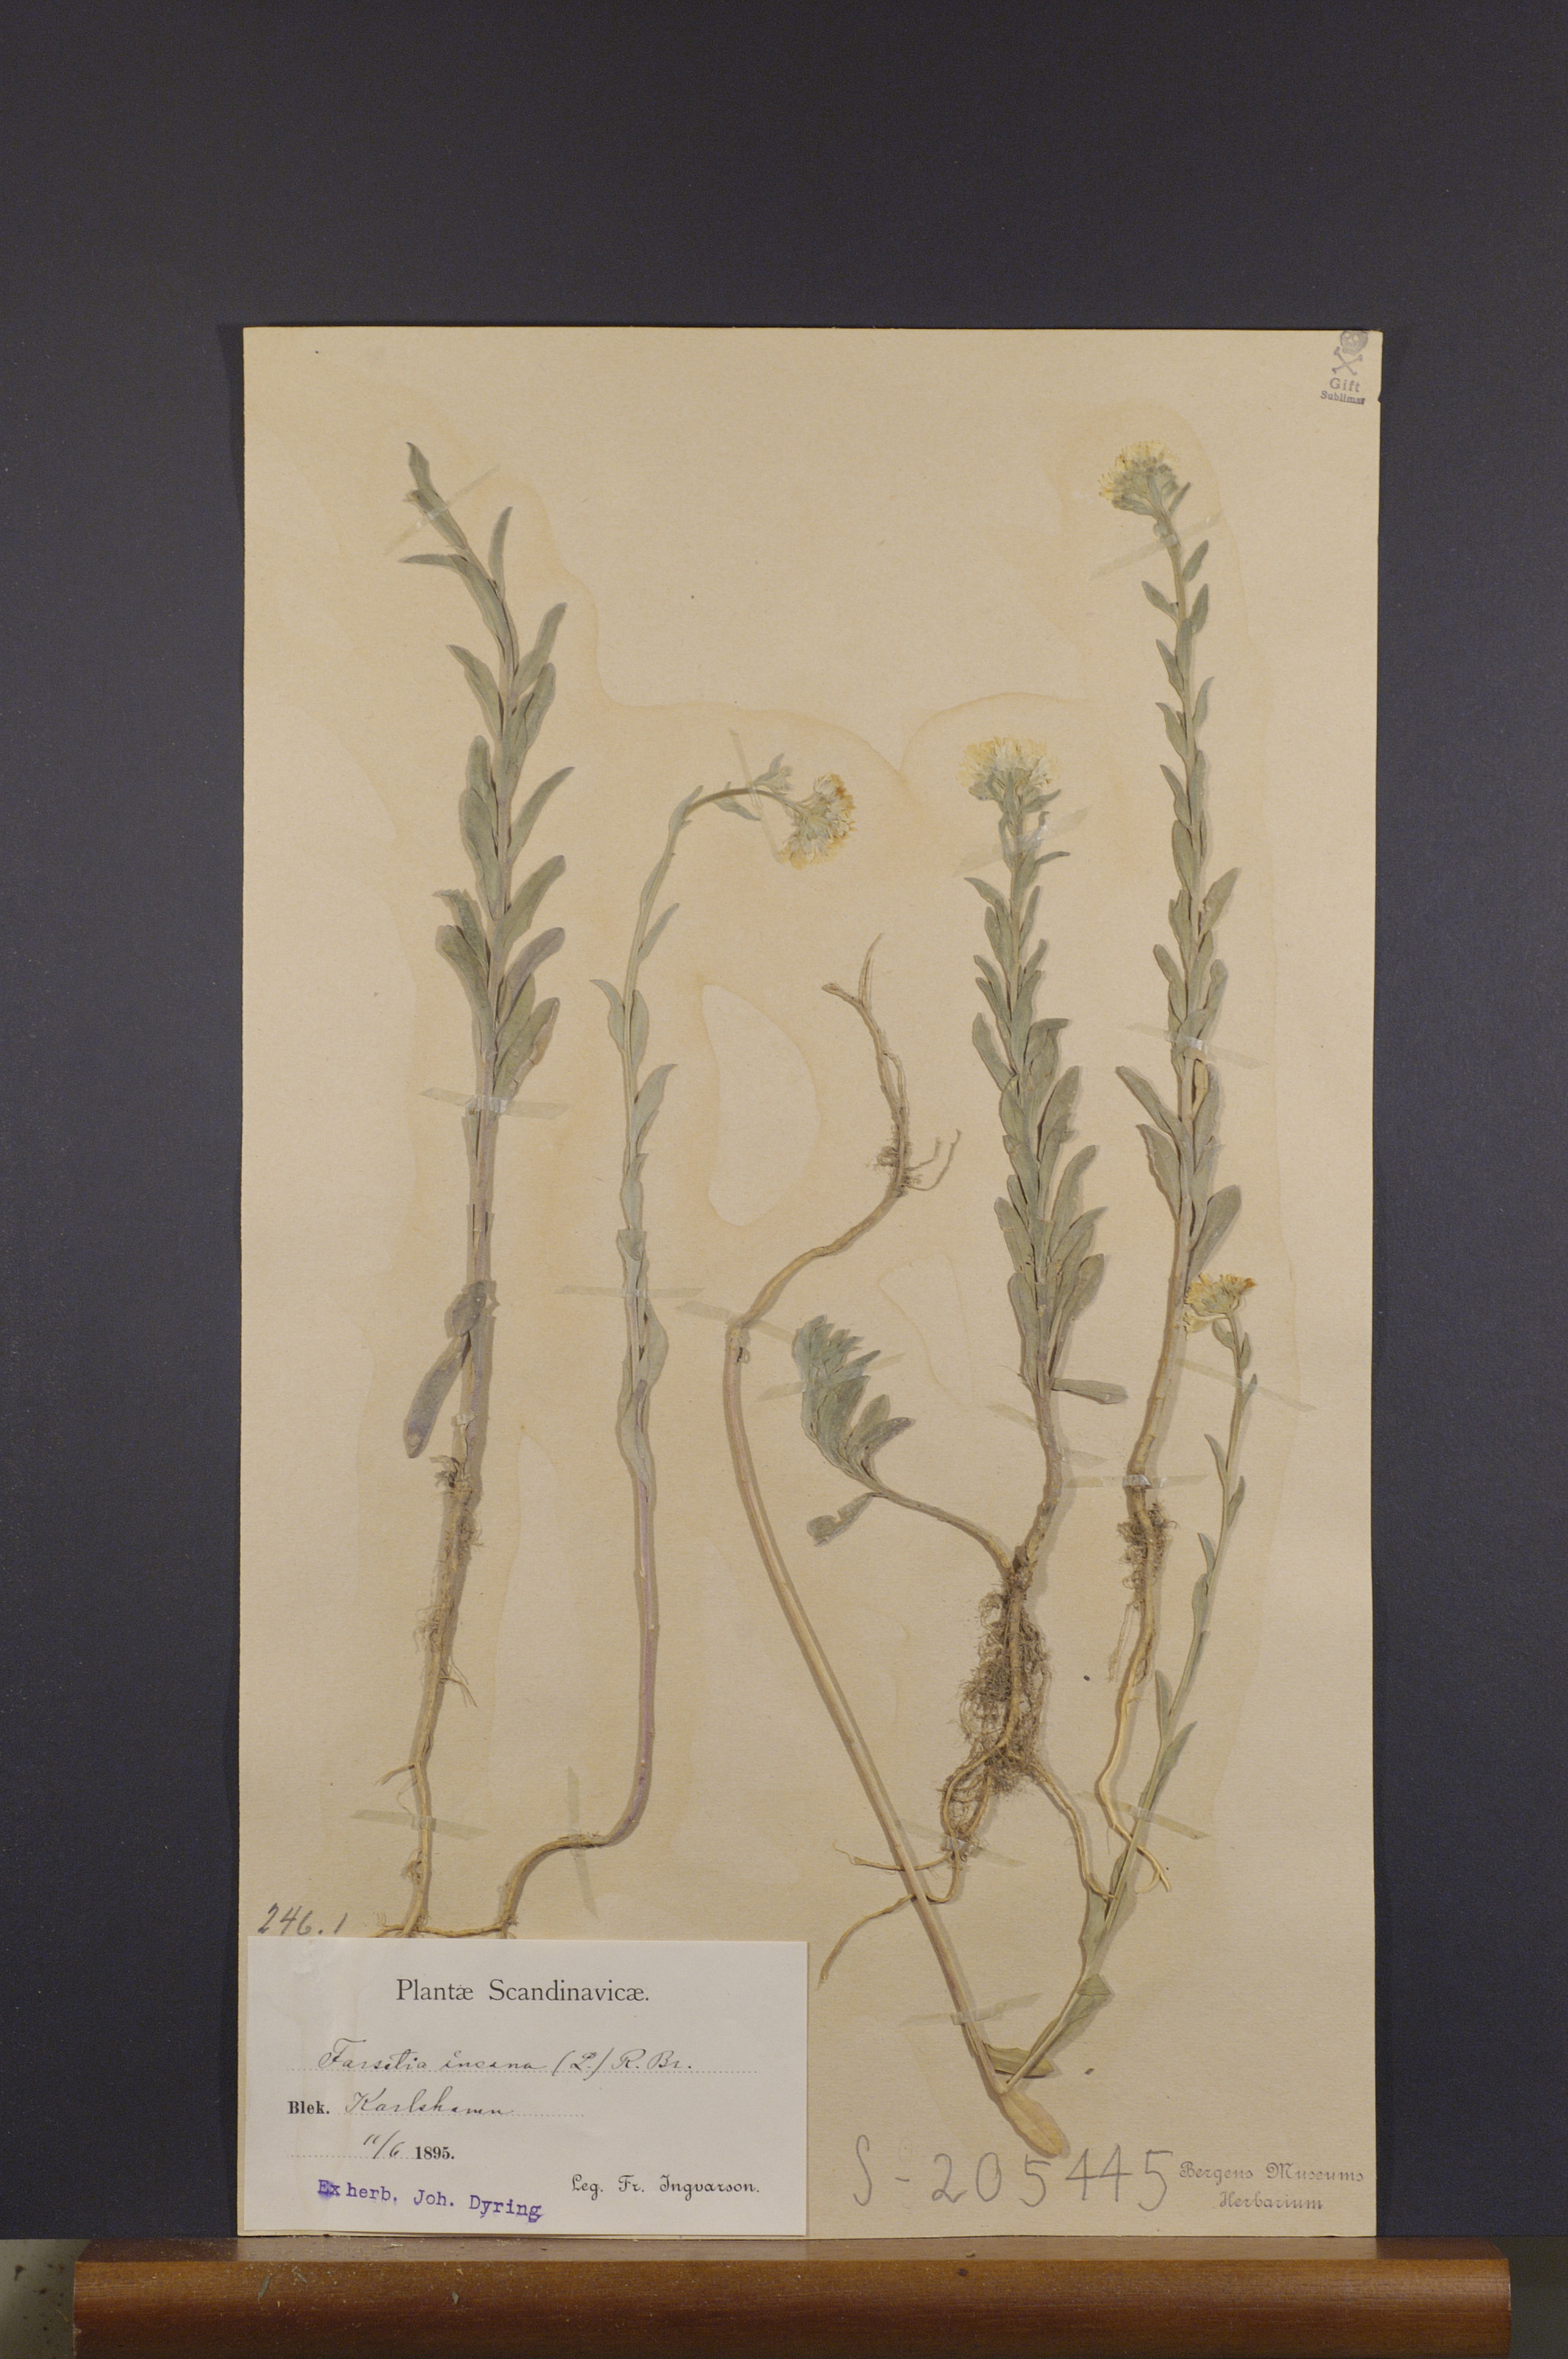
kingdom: Plantae
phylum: Tracheophyta
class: Magnoliopsida
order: Brassicales
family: Brassicaceae
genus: Berteroa
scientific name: Berteroa incana
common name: Hoary alison
